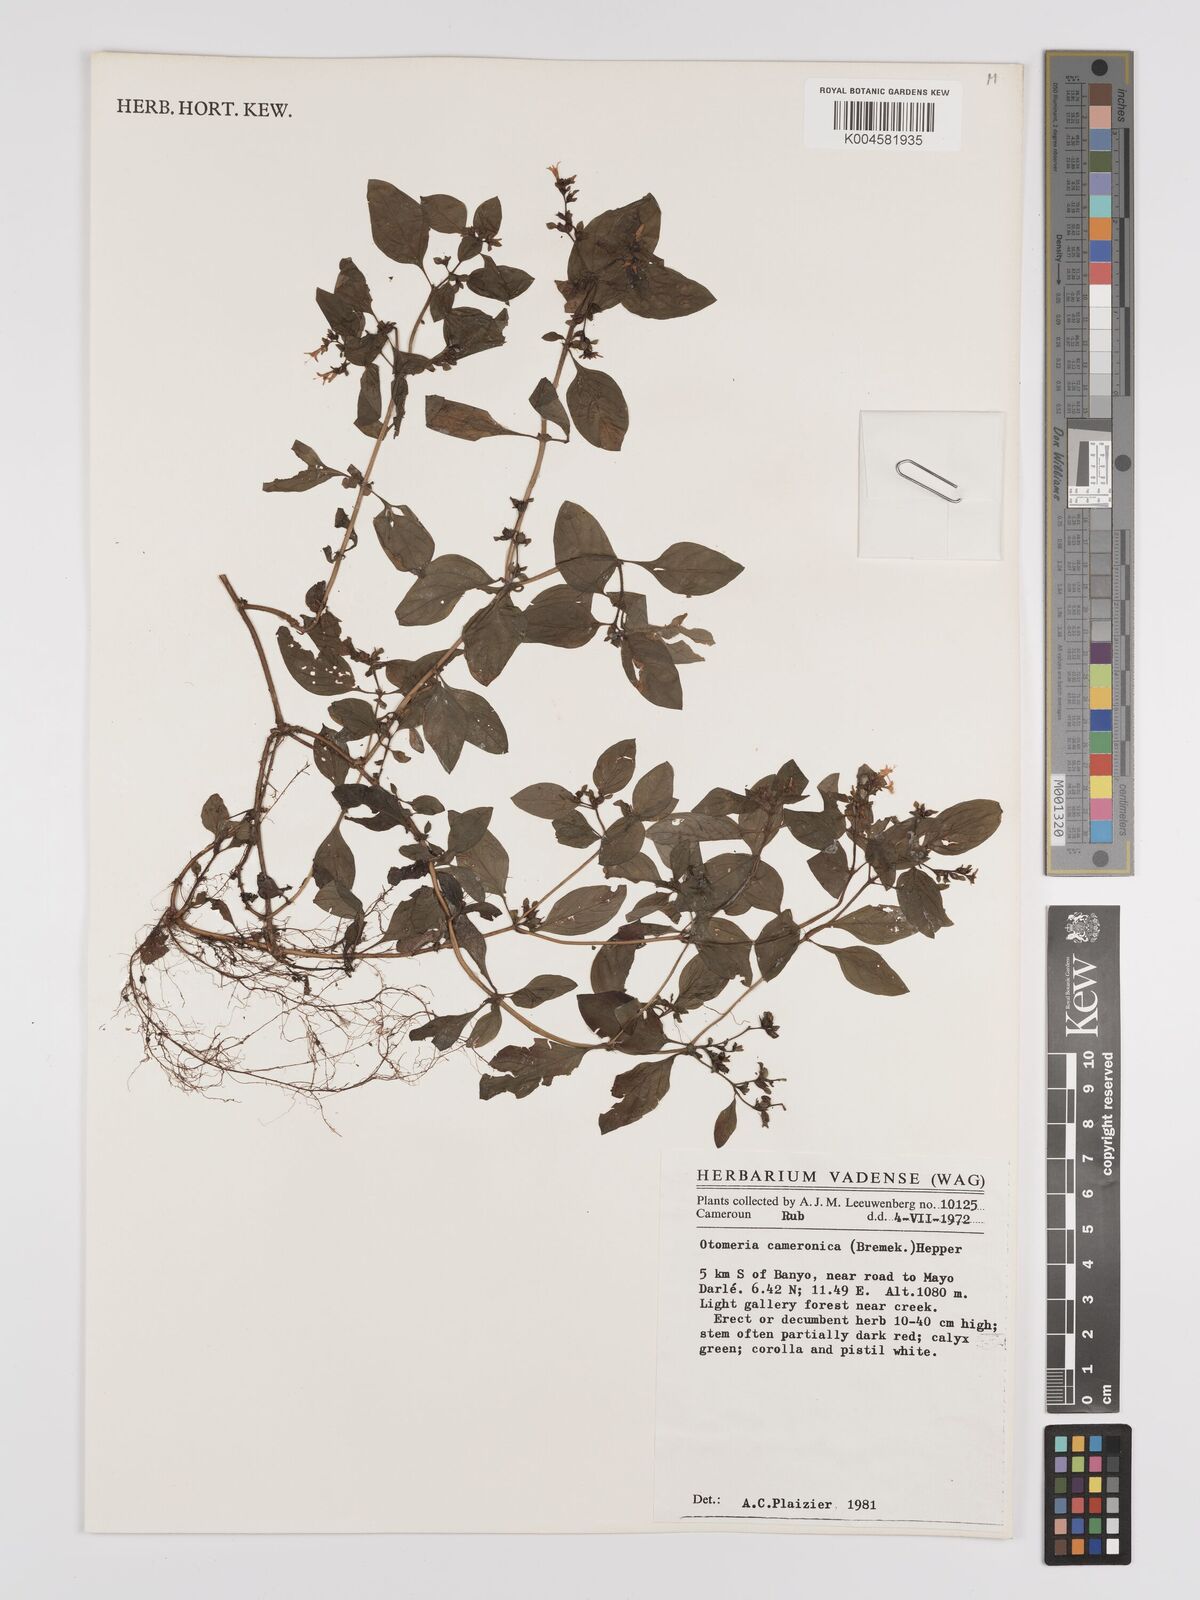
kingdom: Plantae
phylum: Tracheophyta
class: Magnoliopsida
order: Gentianales
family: Rubiaceae
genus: Otomeria
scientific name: Otomeria cameronica
